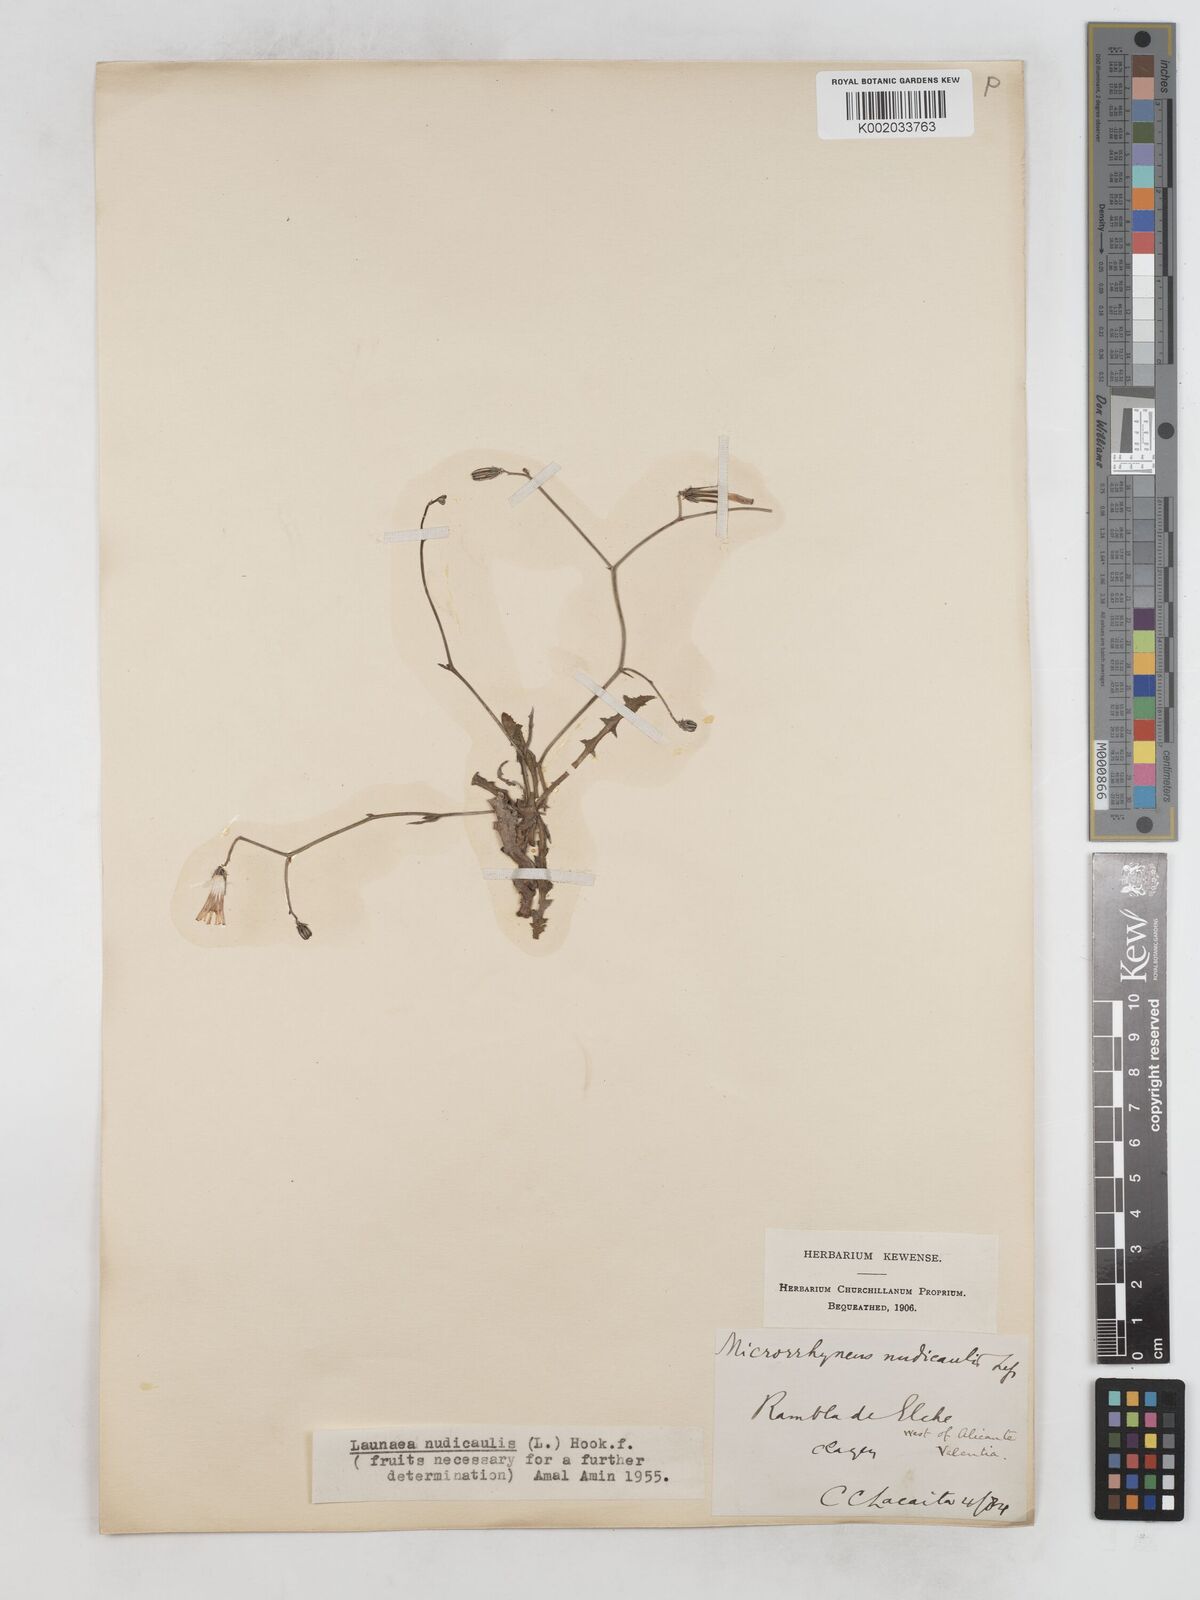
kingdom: Plantae
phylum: Tracheophyta
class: Magnoliopsida
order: Asterales
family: Asteraceae
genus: Launaea
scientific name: Launaea nudicaulis
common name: Naked launaea
